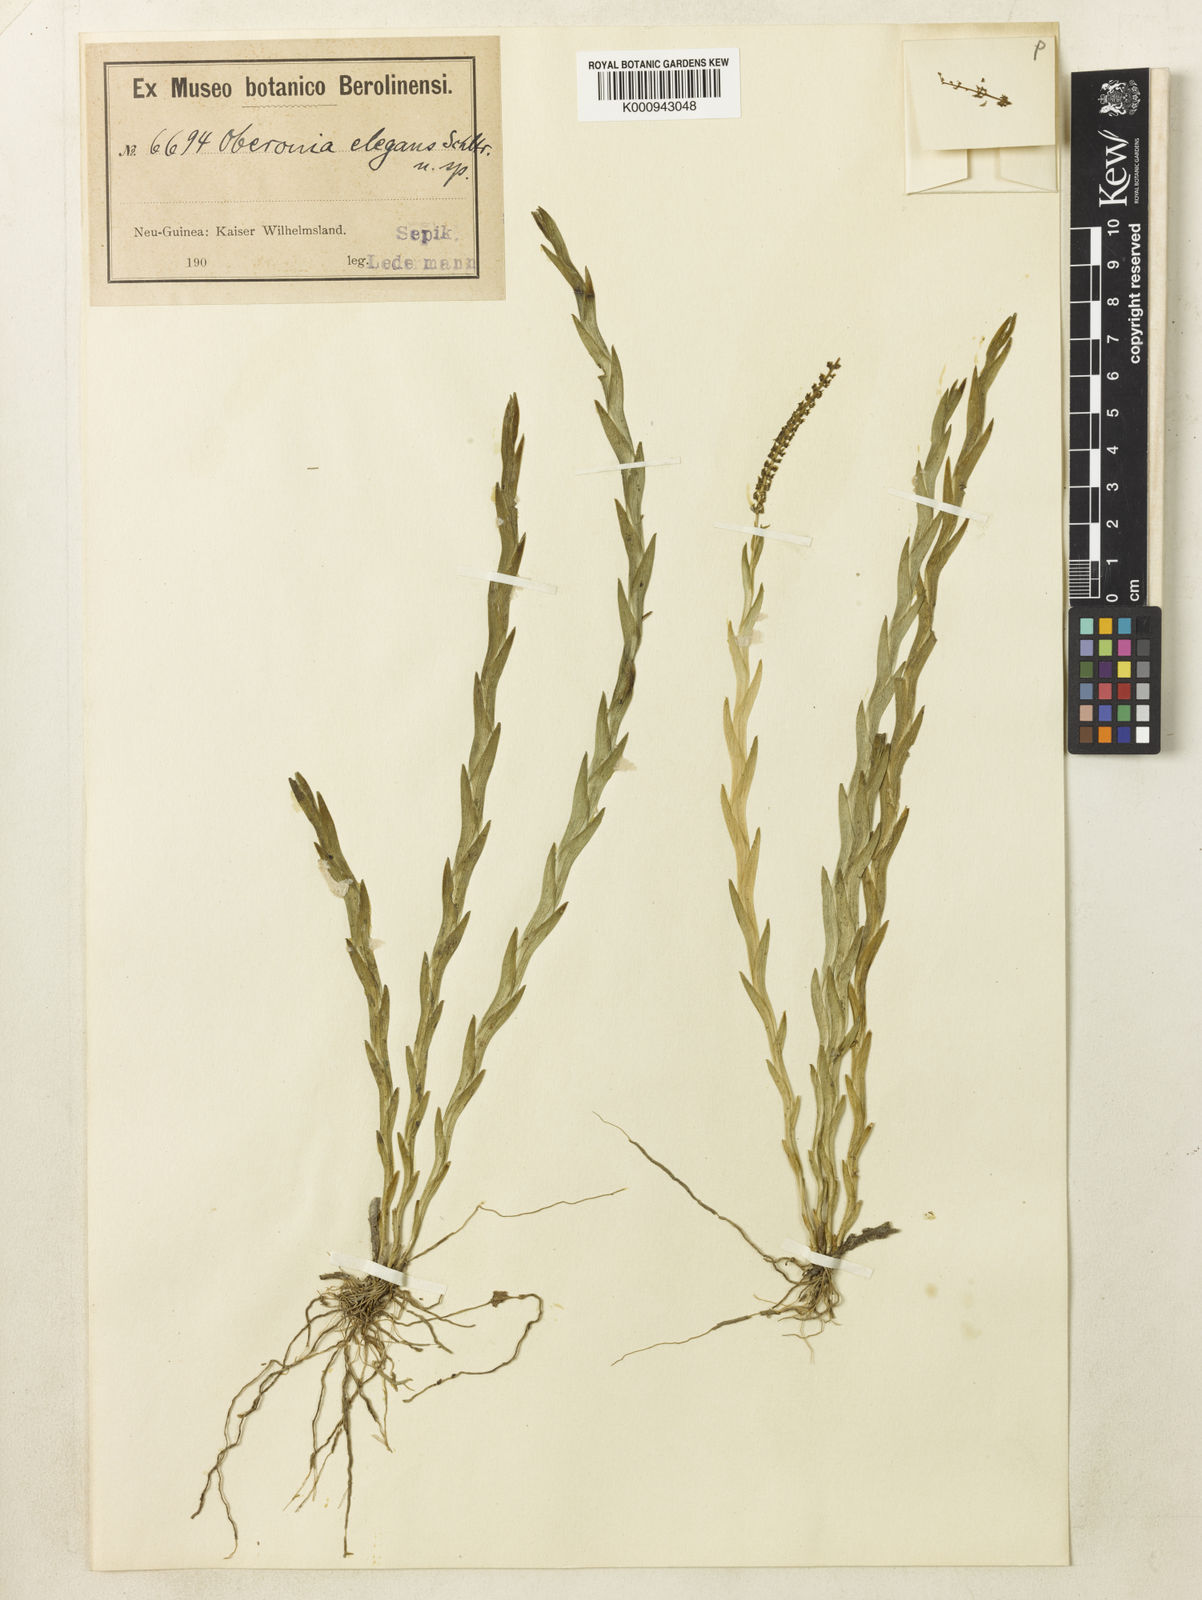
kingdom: Plantae
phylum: Tracheophyta
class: Liliopsida
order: Asparagales
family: Orchidaceae
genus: Oberonia
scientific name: Oberonia elegans
